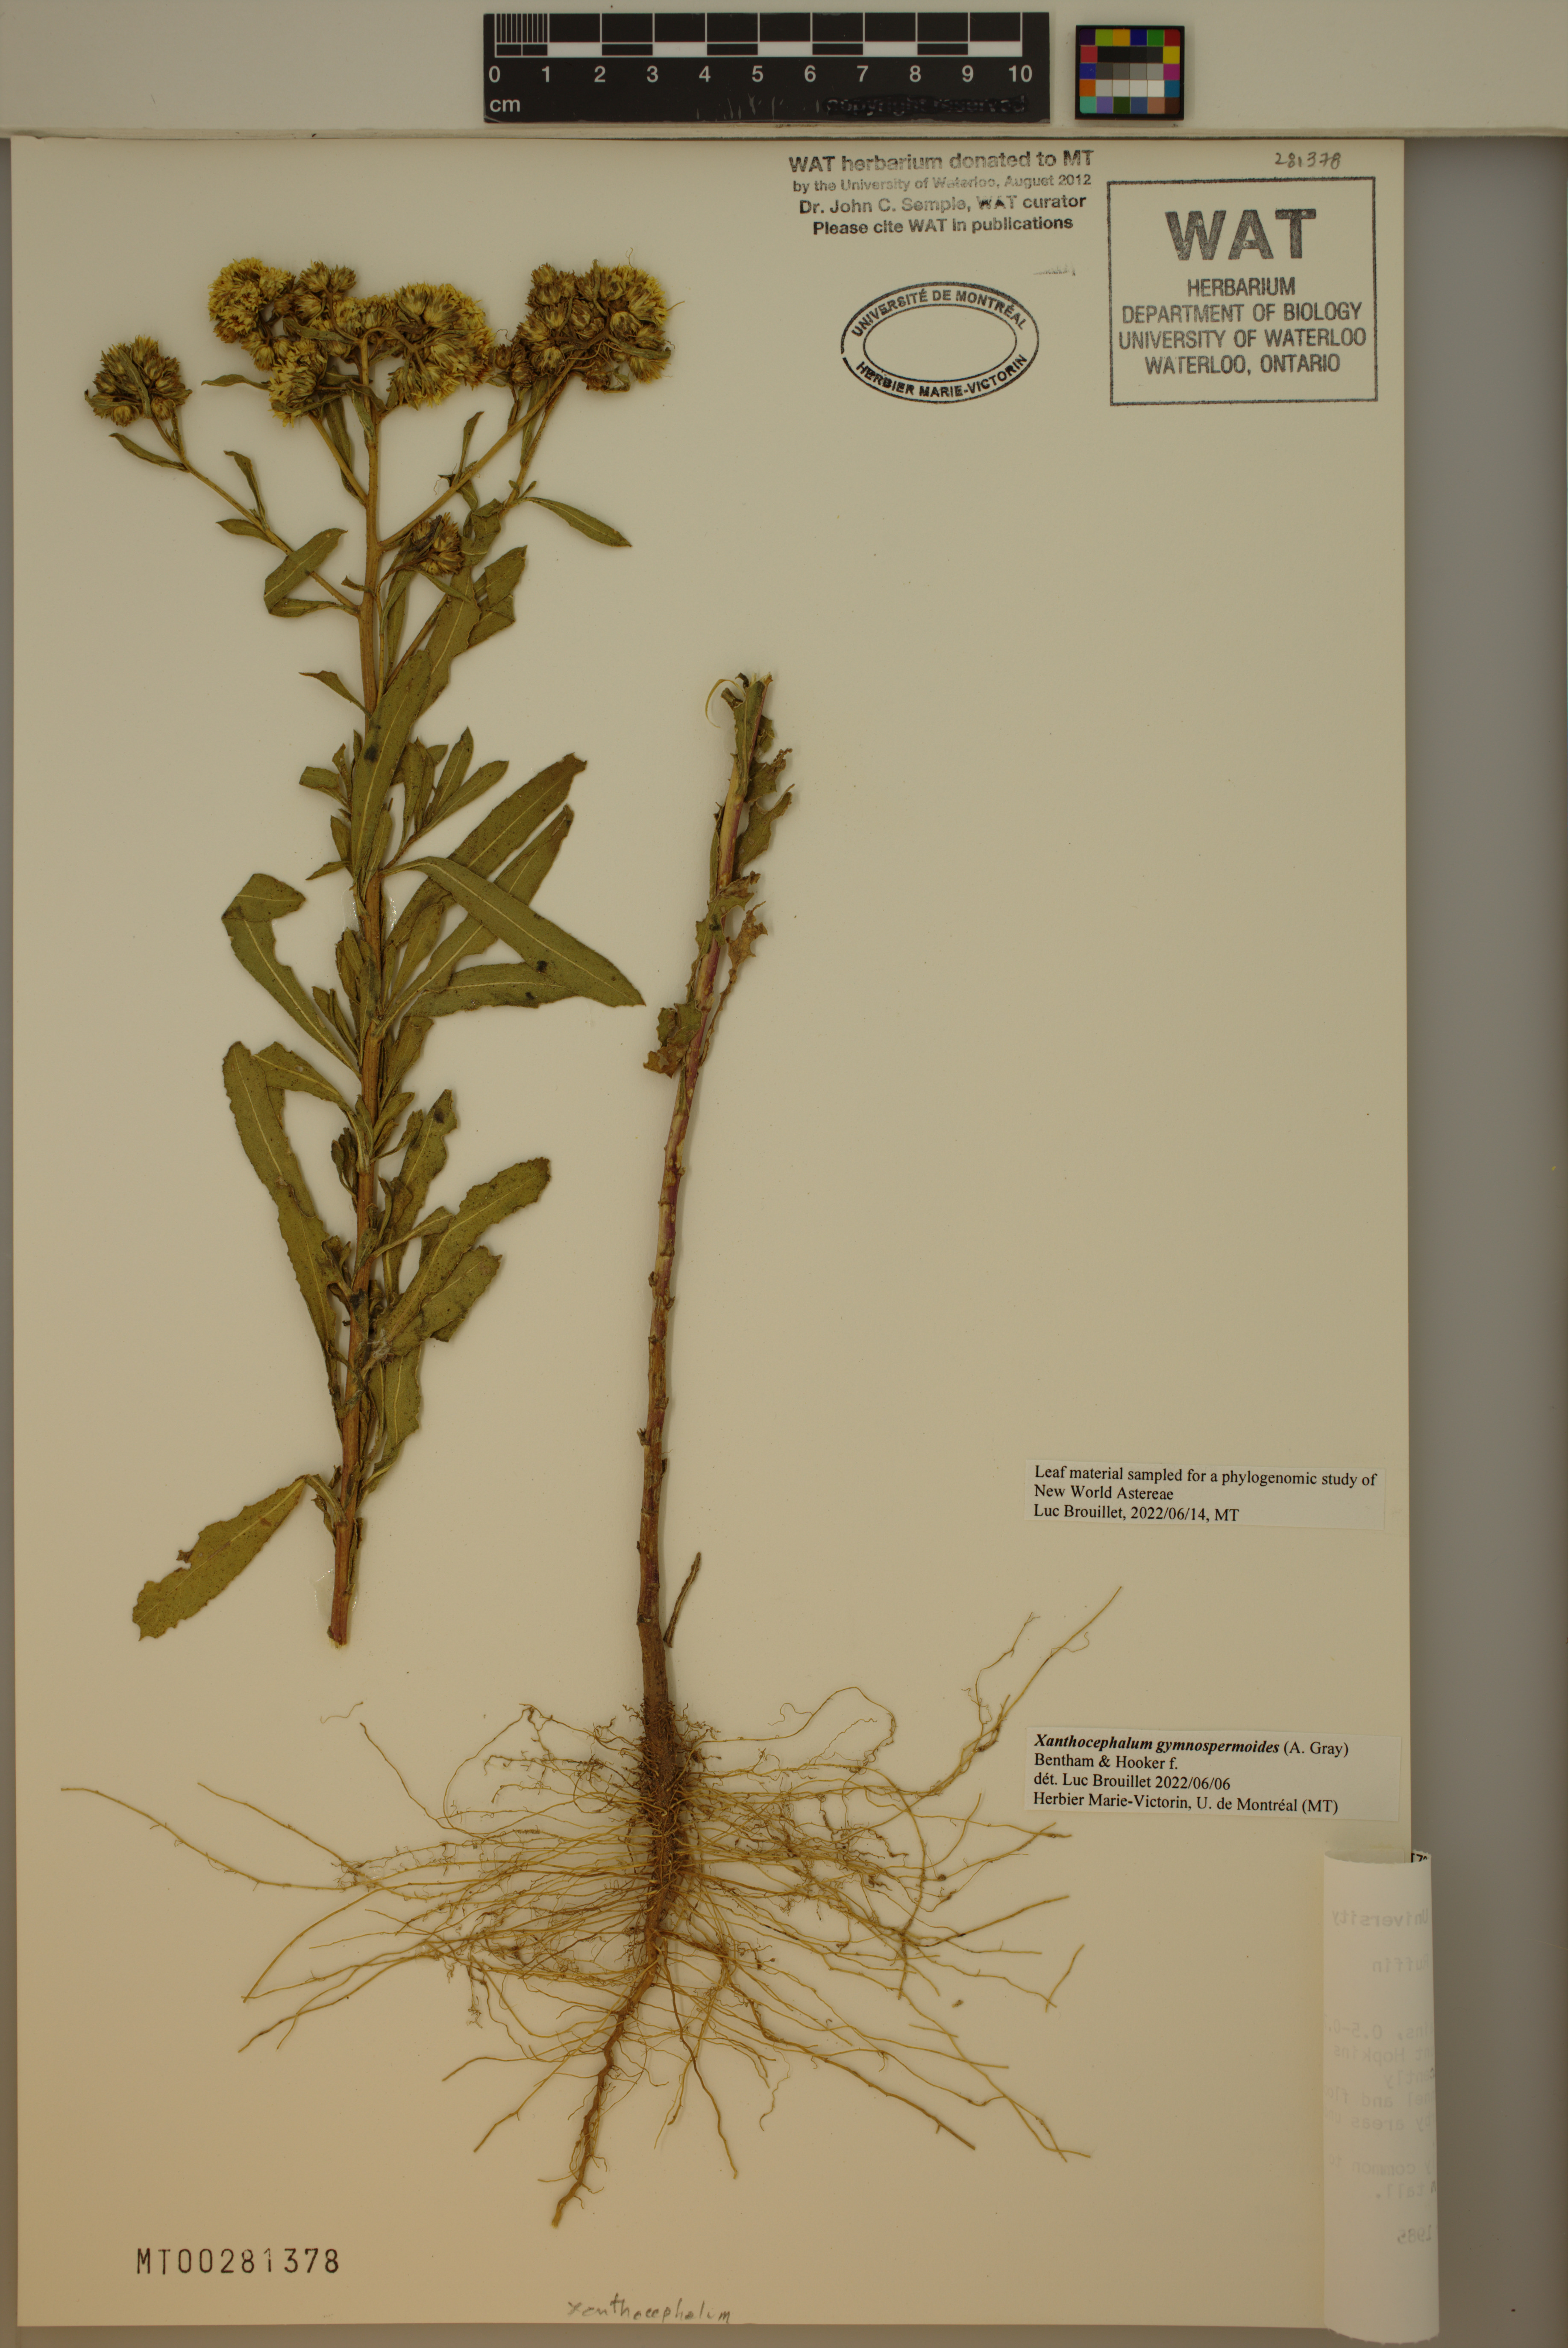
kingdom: Plantae
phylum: Tracheophyta
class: Magnoliopsida
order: Asterales
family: Asteraceae
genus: Xanthocephalum
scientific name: Xanthocephalum gymnospermoides
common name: San pedro matchweed
